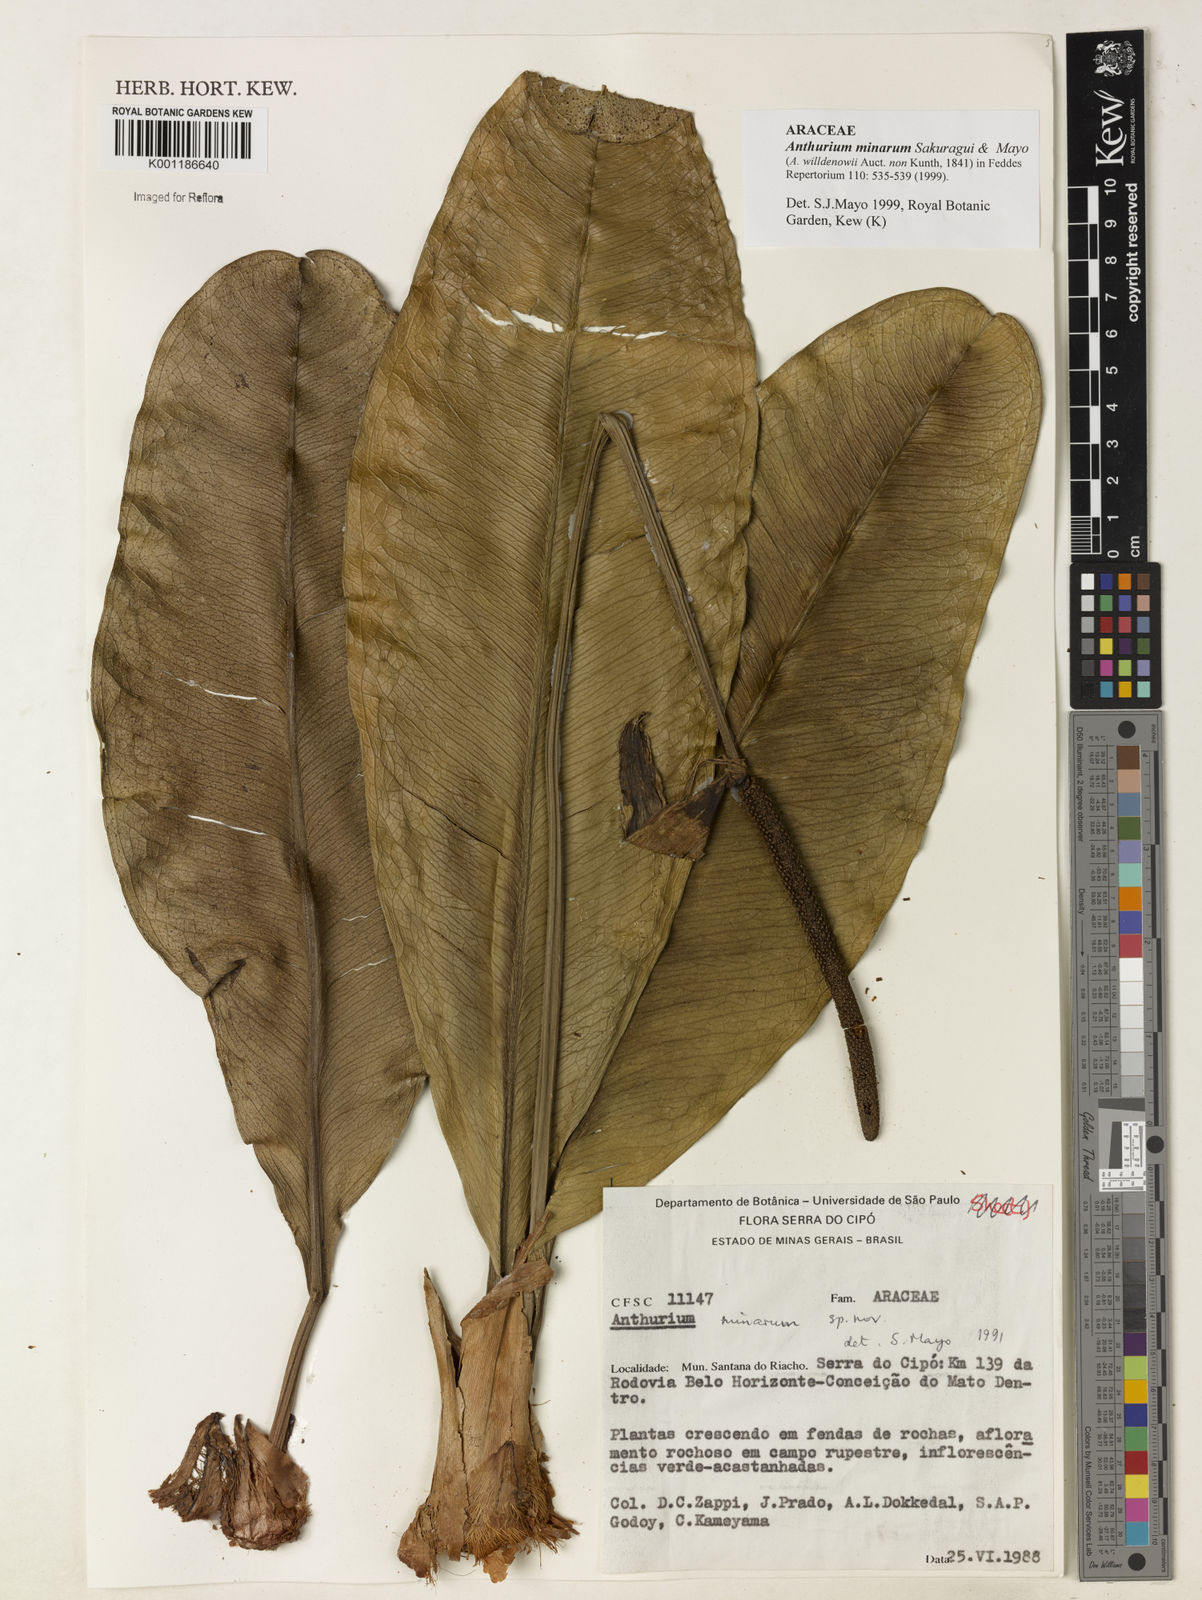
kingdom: Plantae
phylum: Tracheophyta
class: Liliopsida
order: Alismatales
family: Araceae
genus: Anthurium
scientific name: Anthurium minarum
